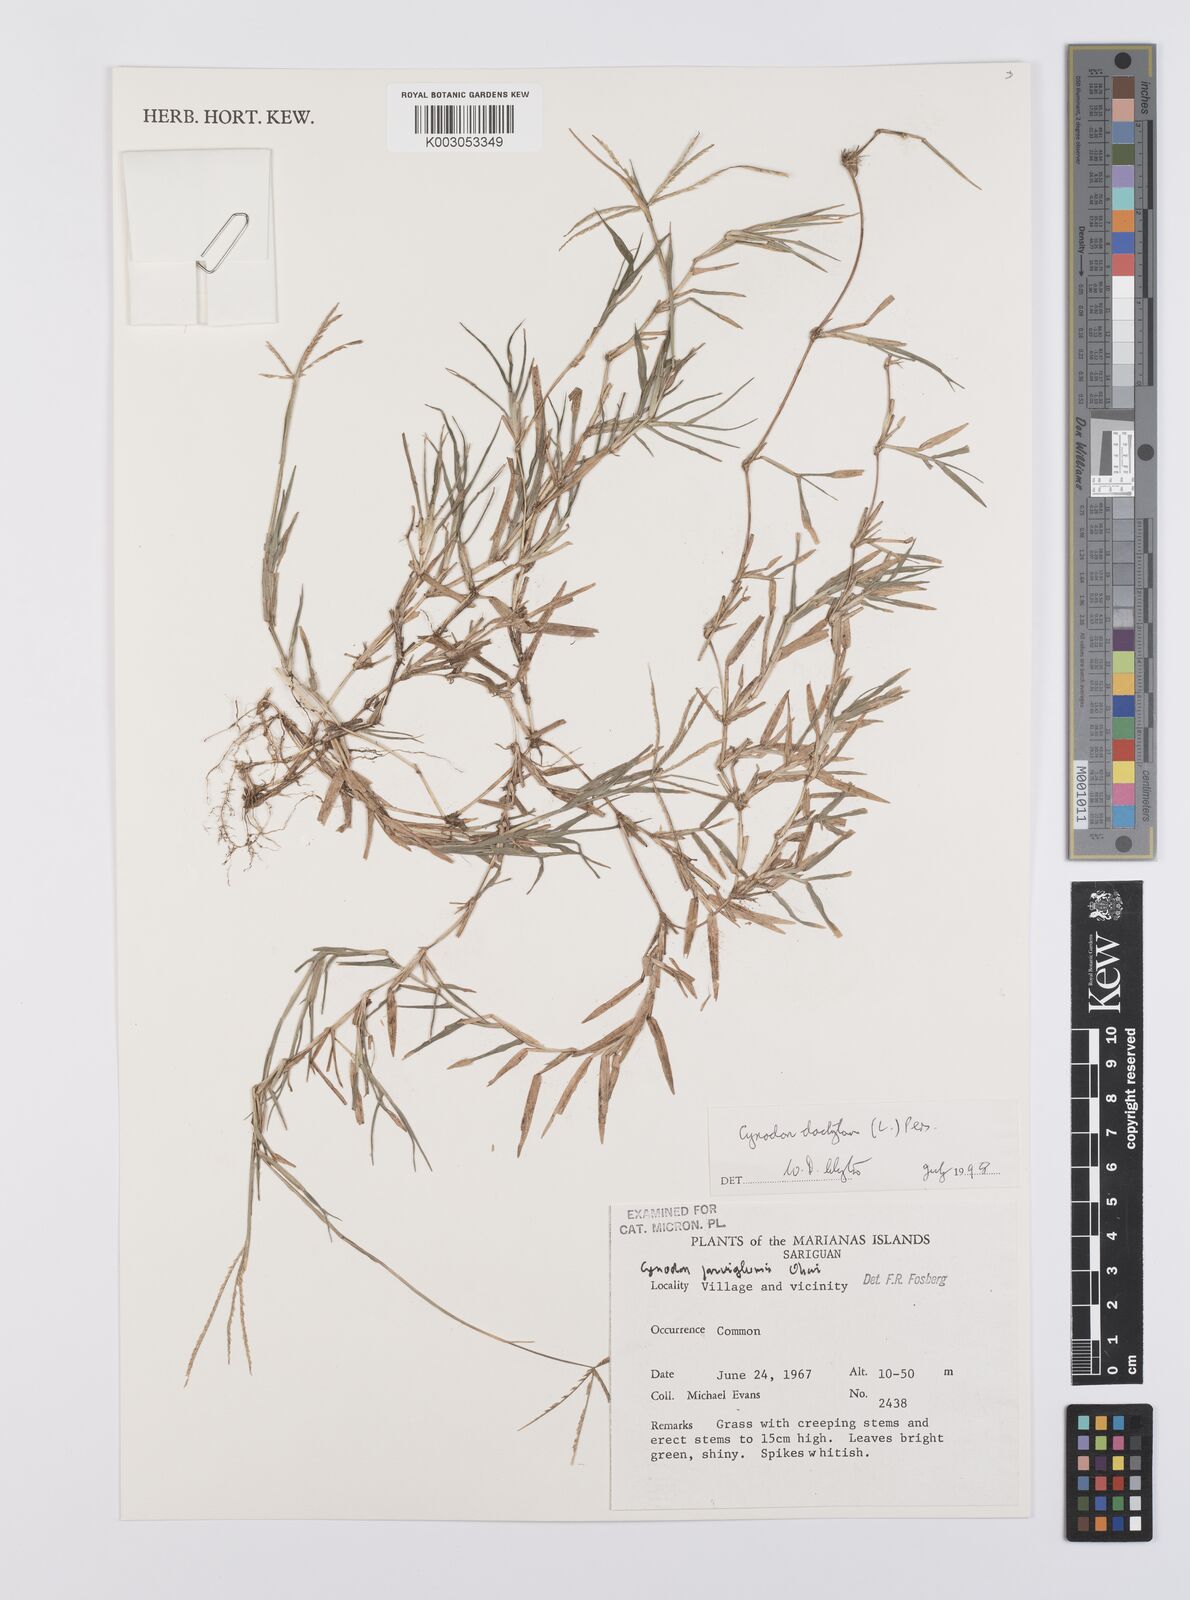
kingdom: Plantae
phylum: Tracheophyta
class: Liliopsida
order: Poales
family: Poaceae
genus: Cynodon
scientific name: Cynodon dactylon
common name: Bermuda grass
